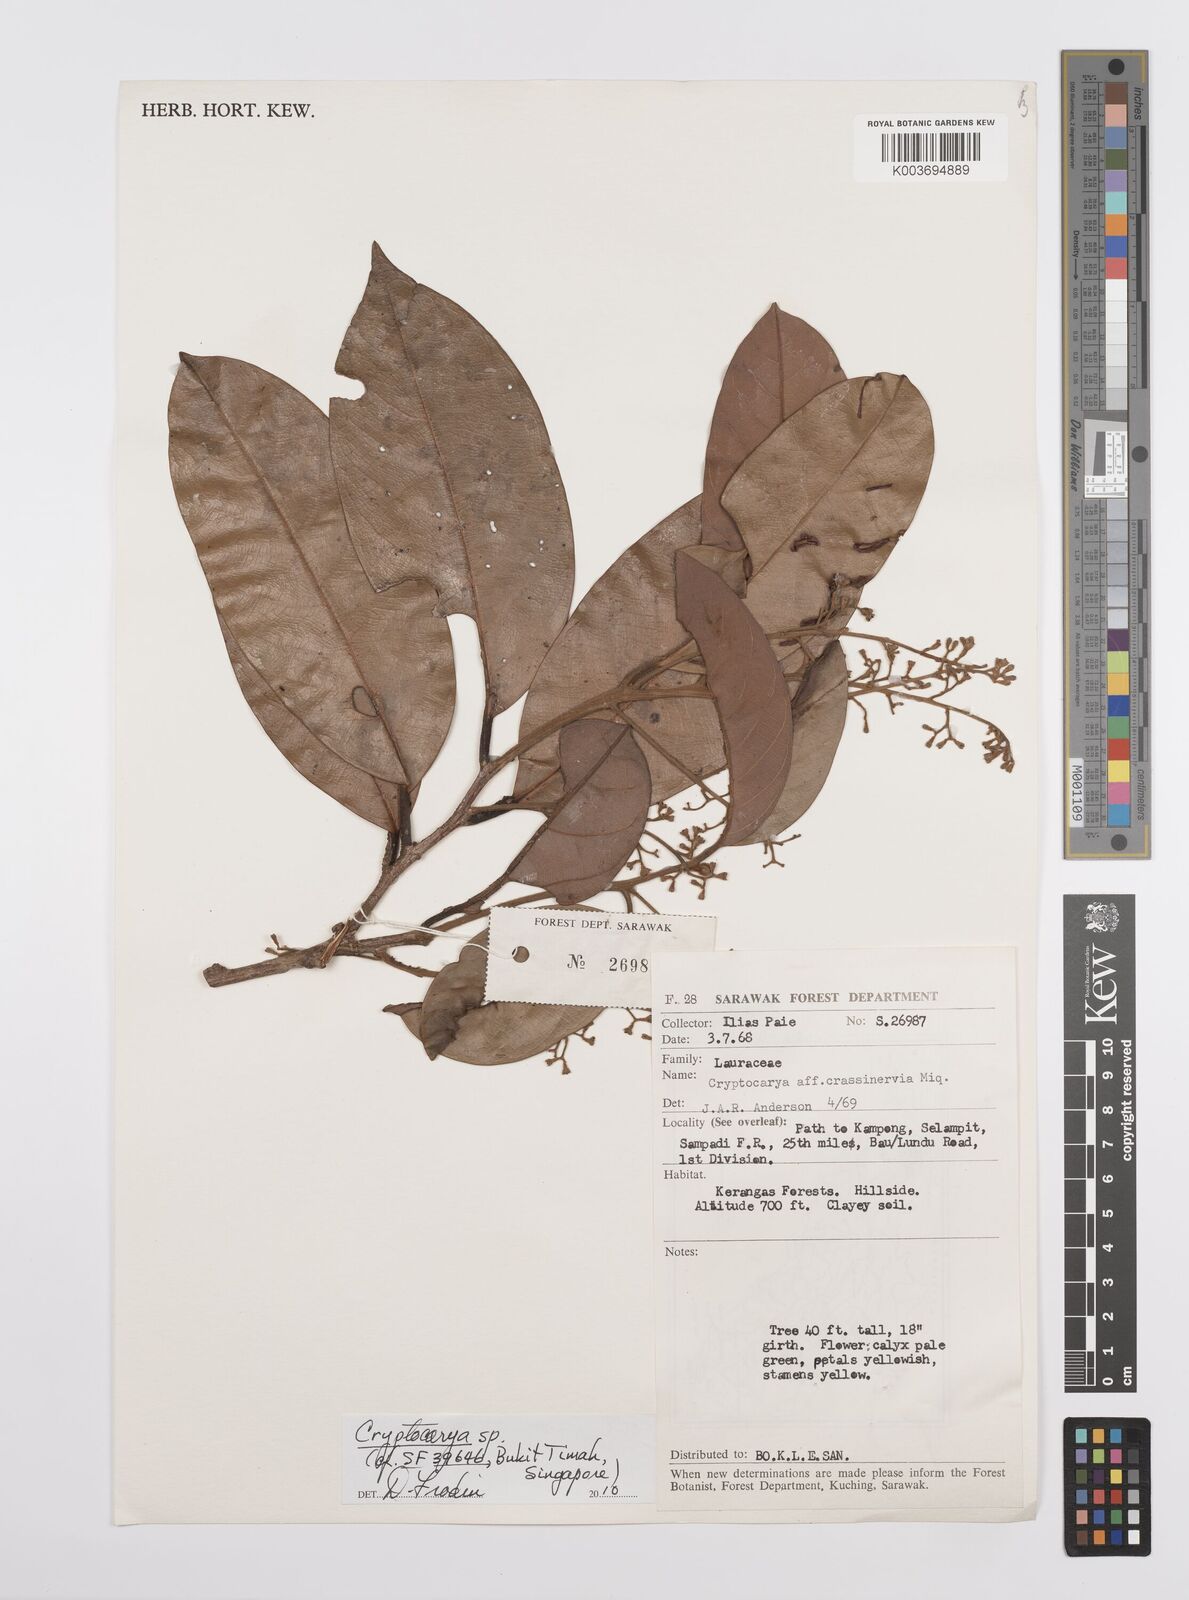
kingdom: Plantae
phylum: Tracheophyta
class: Magnoliopsida
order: Laurales
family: Lauraceae
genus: Cryptocarya
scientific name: Cryptocarya
